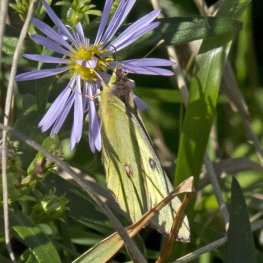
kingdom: Animalia
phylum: Arthropoda
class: Insecta
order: Lepidoptera
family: Pieridae
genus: Colias
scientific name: Colias philodice
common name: Clouded Sulphur
